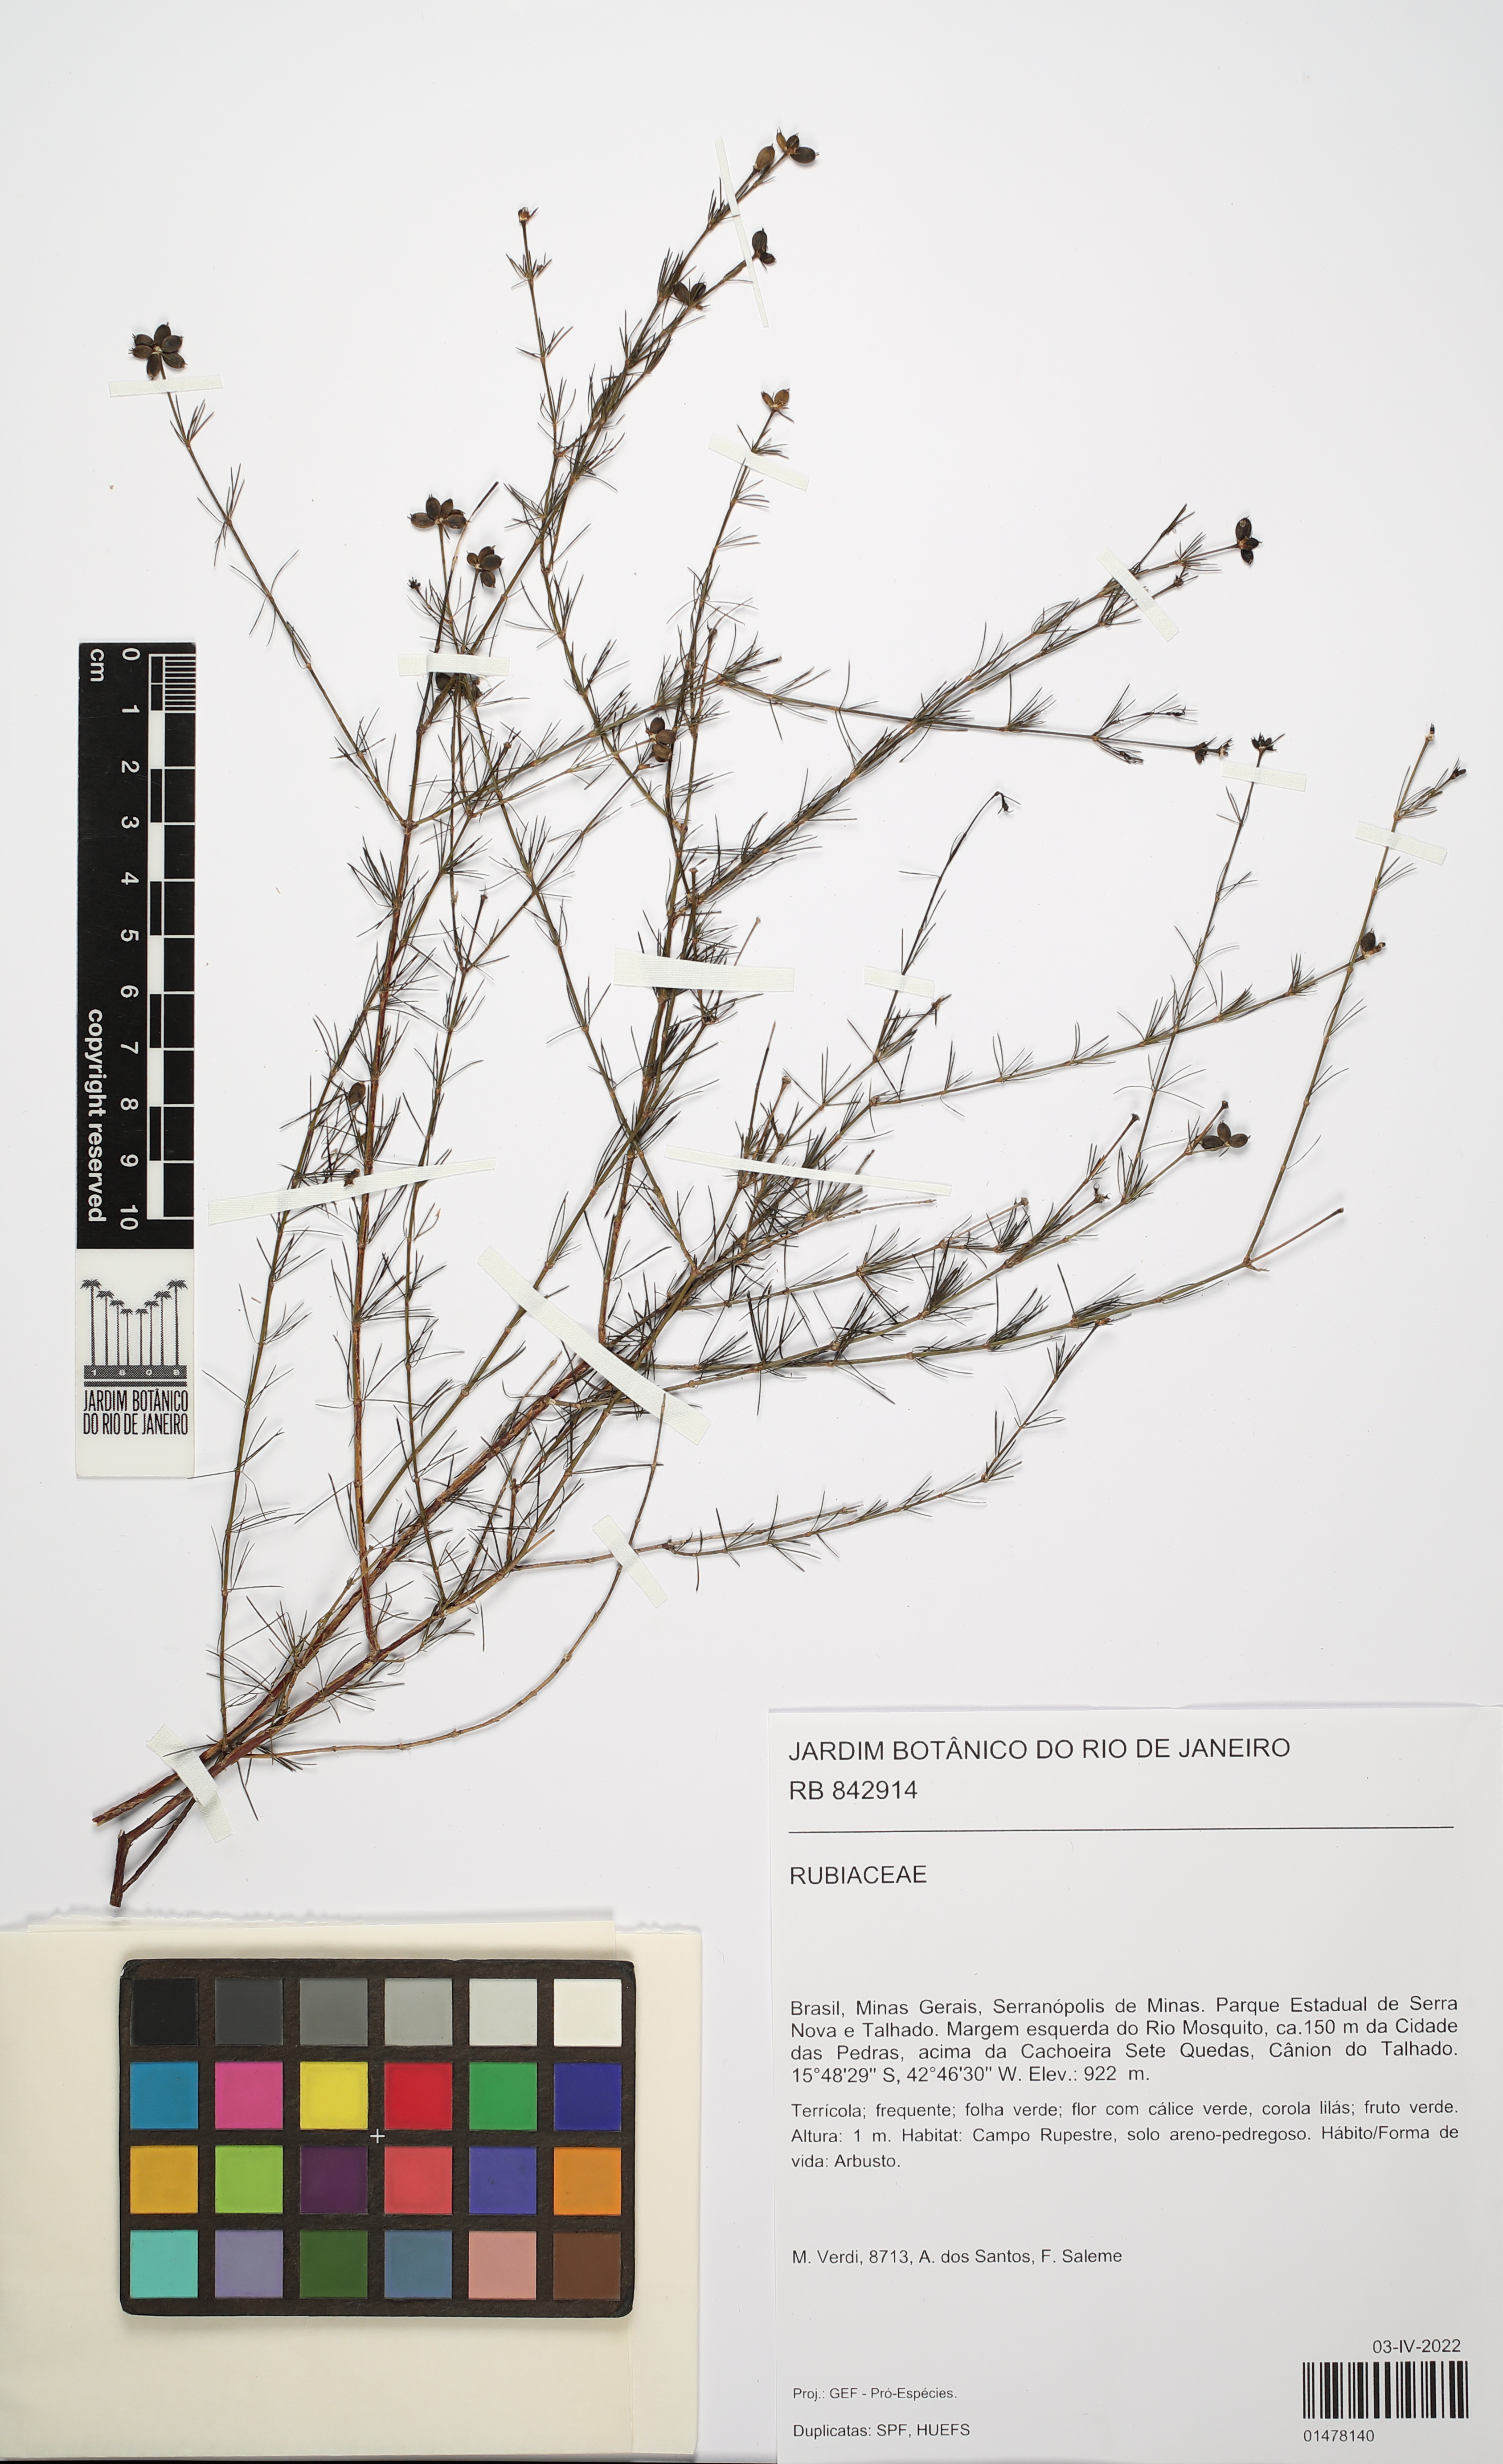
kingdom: Plantae
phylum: Tracheophyta
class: Magnoliopsida
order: Gentianales
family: Rubiaceae
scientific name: Rubiaceae
